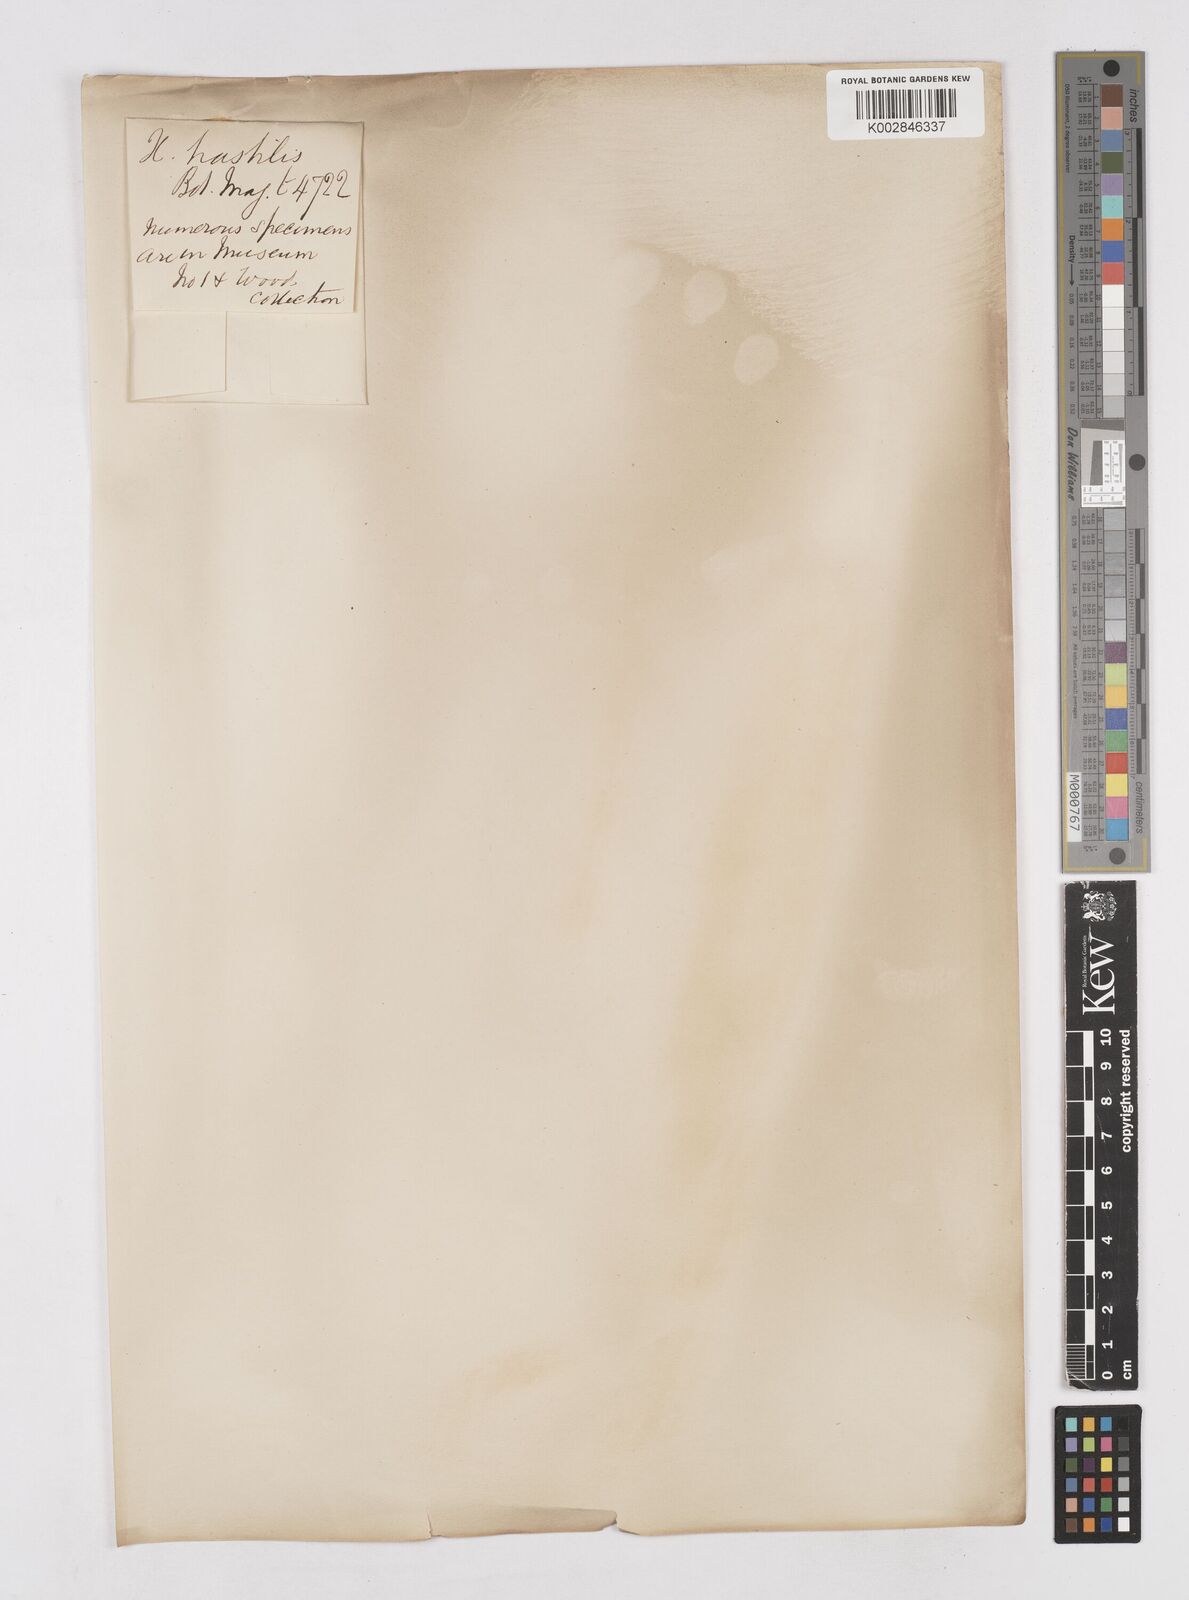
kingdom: Plantae
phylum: Tracheophyta
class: Liliopsida
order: Asparagales
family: Asphodelaceae
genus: Xanthorrhoea
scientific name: Xanthorrhoea resinosa
